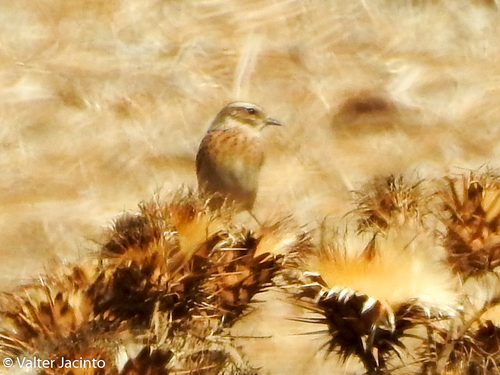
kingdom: Animalia
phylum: Chordata
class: Aves
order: Passeriformes
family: Muscicapidae
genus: Saxicola
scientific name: Saxicola rubetra
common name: Whinchat
